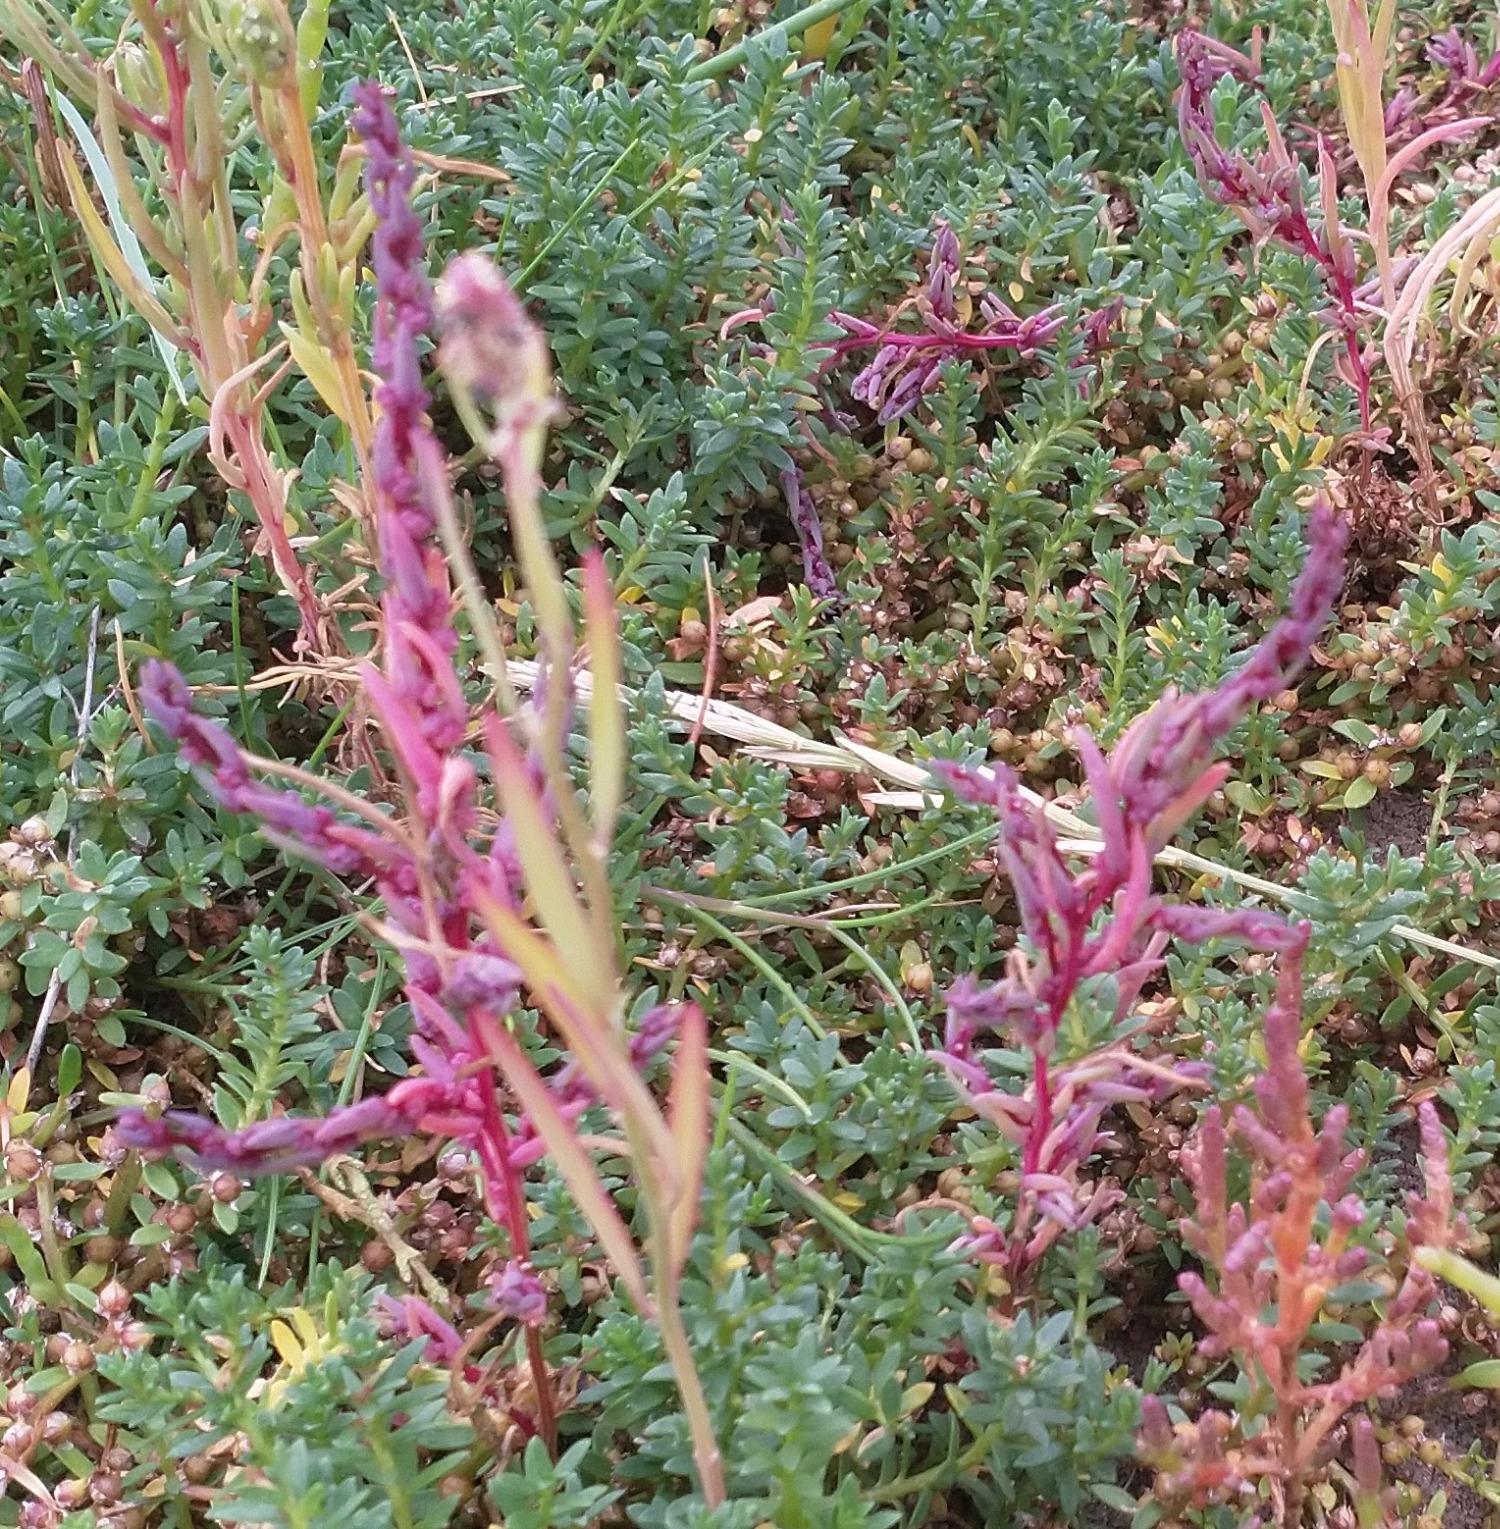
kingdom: Plantae
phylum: Tracheophyta
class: Magnoliopsida
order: Caryophyllales
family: Amaranthaceae
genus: Suaeda
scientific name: Suaeda maritima
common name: Strandgåsefod
